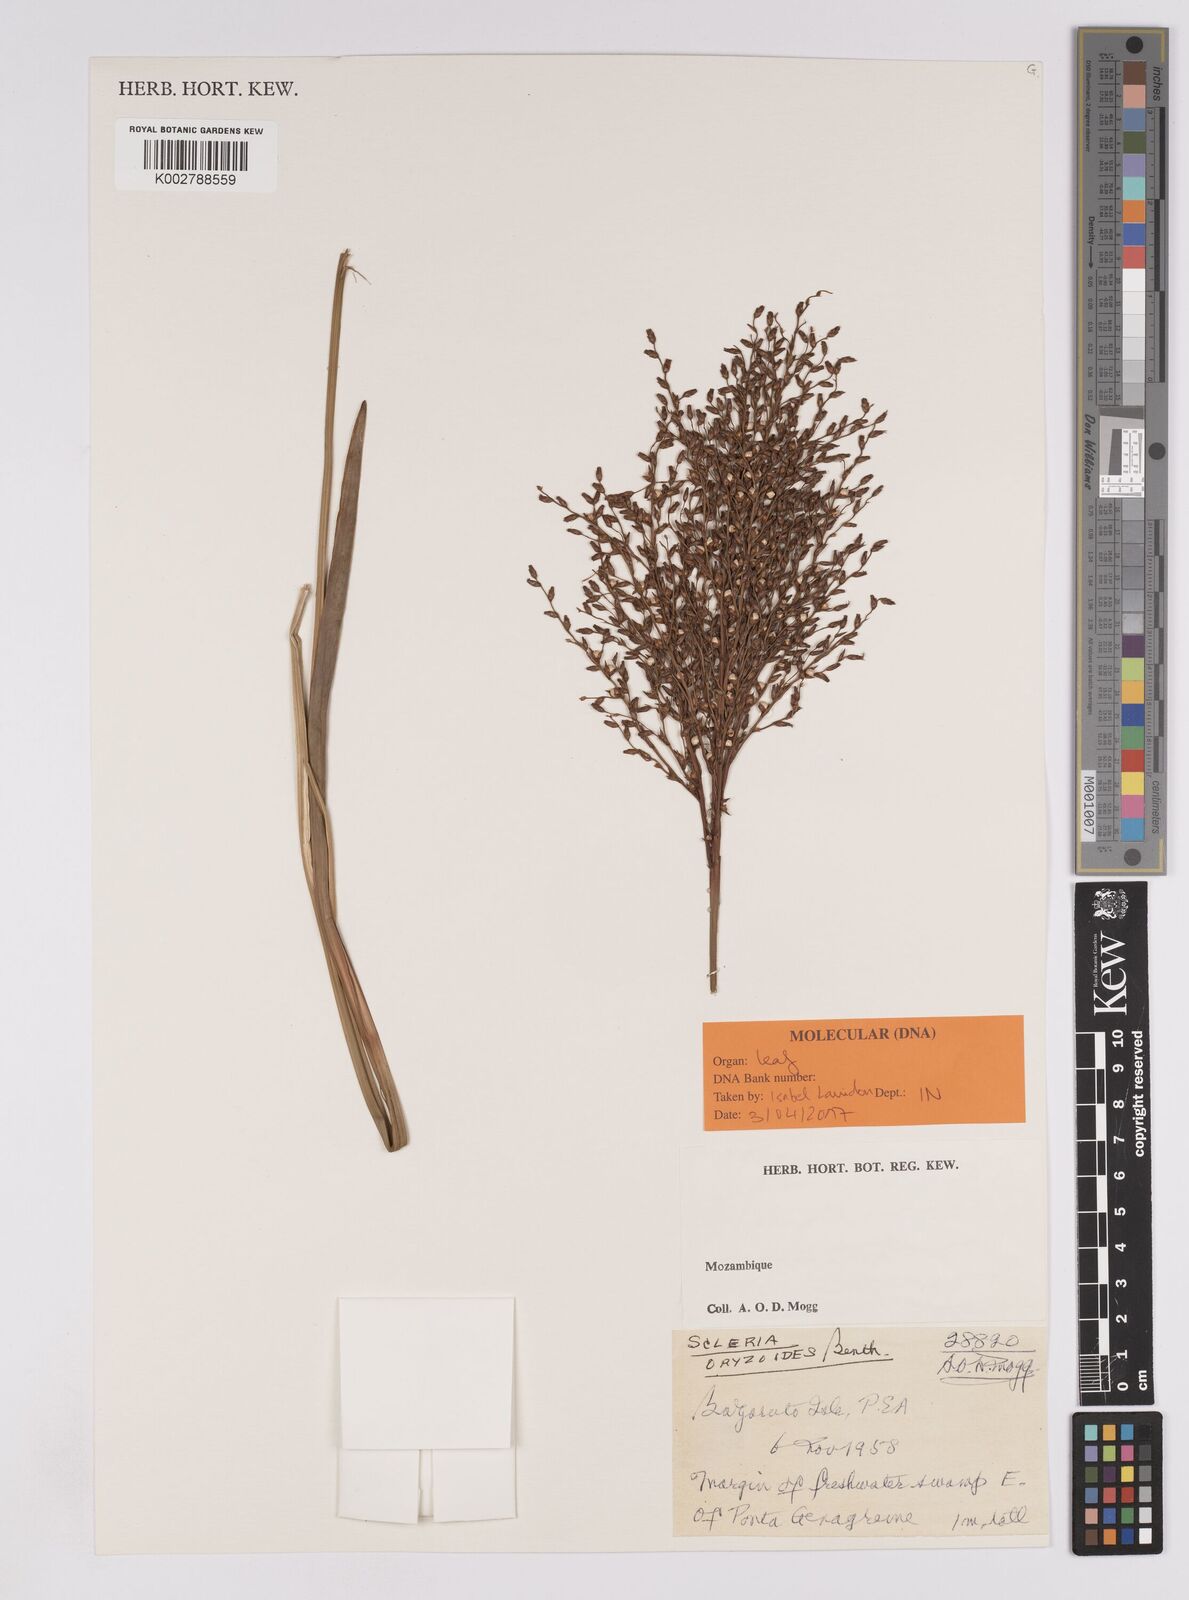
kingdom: Plantae
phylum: Tracheophyta
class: Liliopsida
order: Poales
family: Cyperaceae
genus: Scleria
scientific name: Scleria
